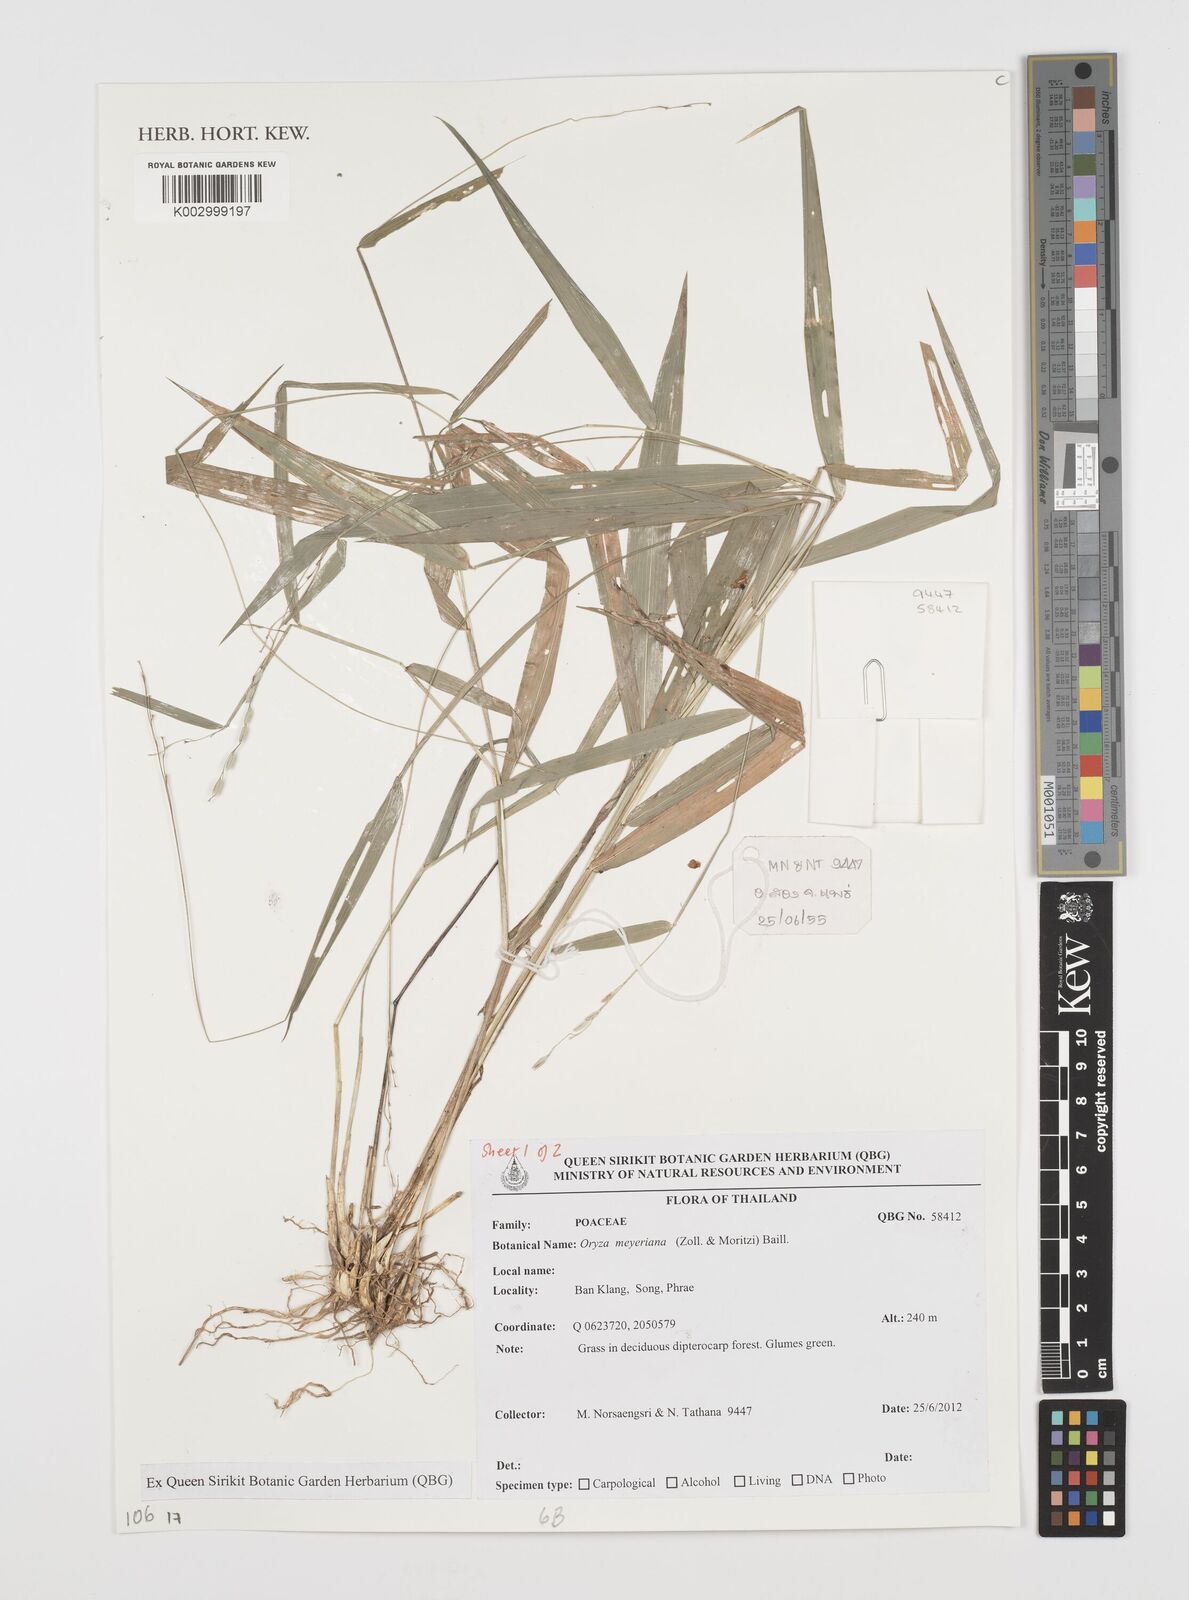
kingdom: Plantae
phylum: Tracheophyta
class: Liliopsida
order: Poales
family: Poaceae
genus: Oryza
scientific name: Oryza meyeriana
